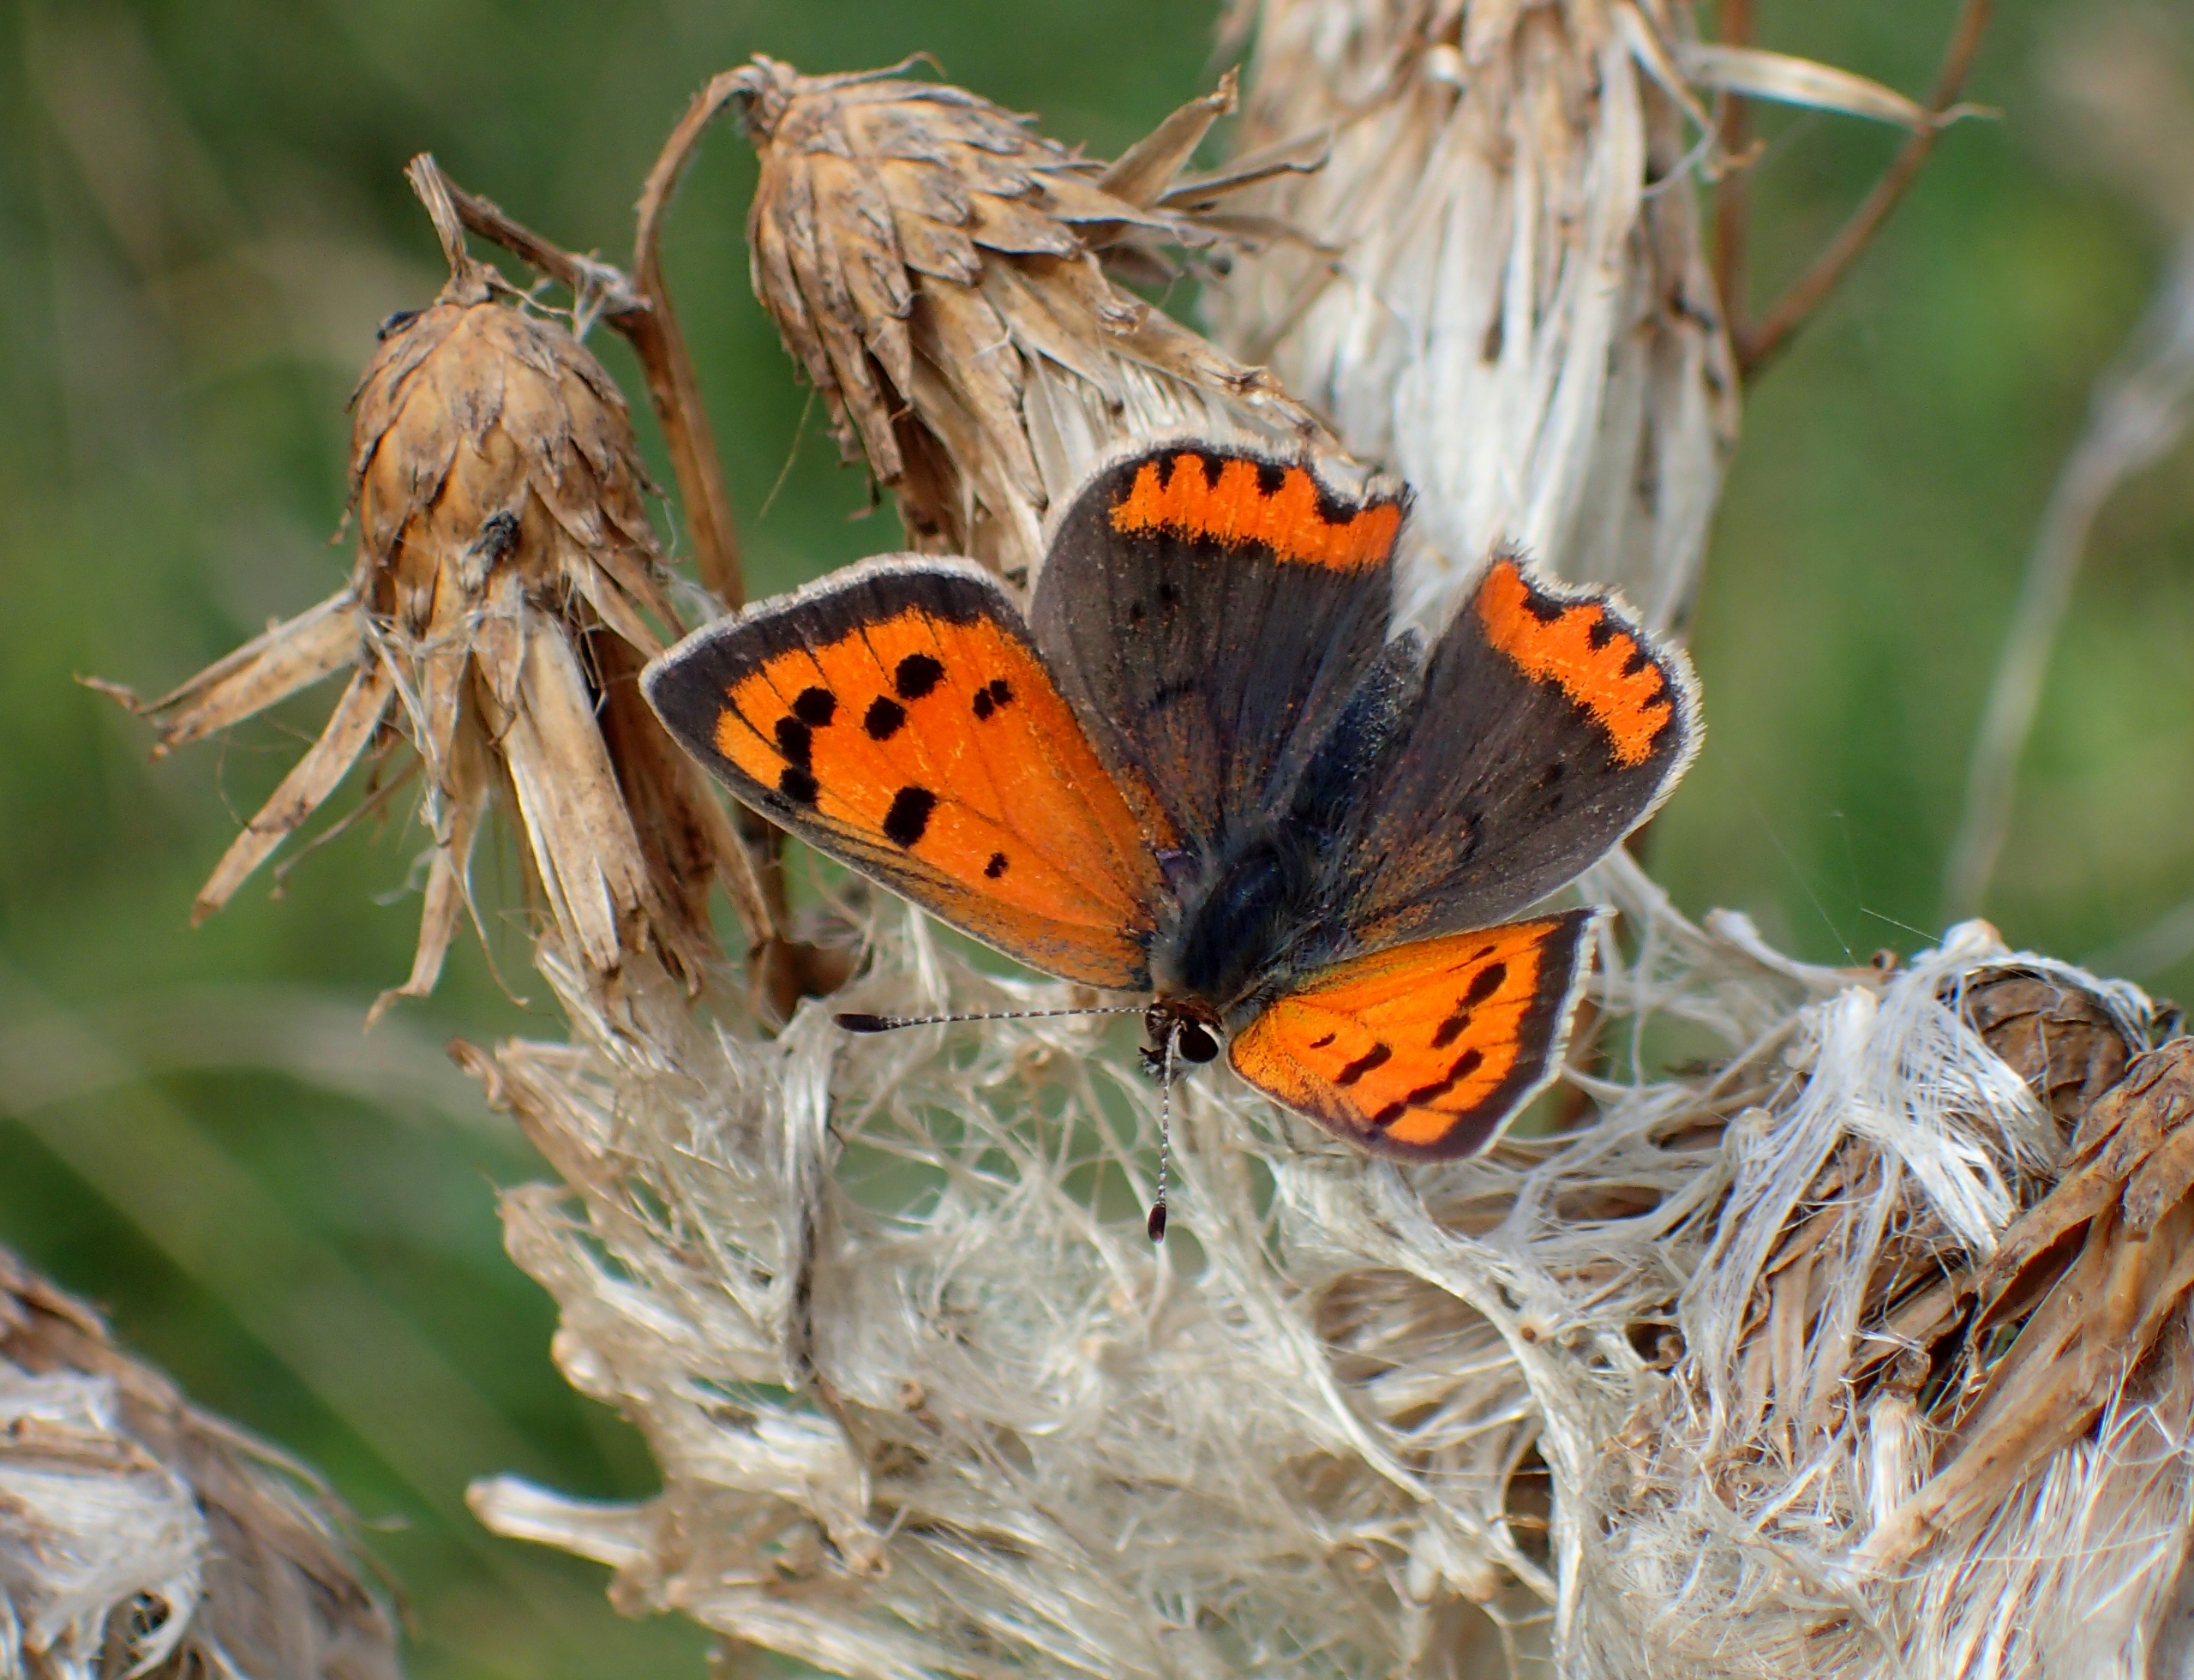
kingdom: Animalia
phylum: Arthropoda
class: Insecta
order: Lepidoptera
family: Lycaenidae
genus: Lycaena
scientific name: Lycaena phlaeas
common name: Lille ildfugl
